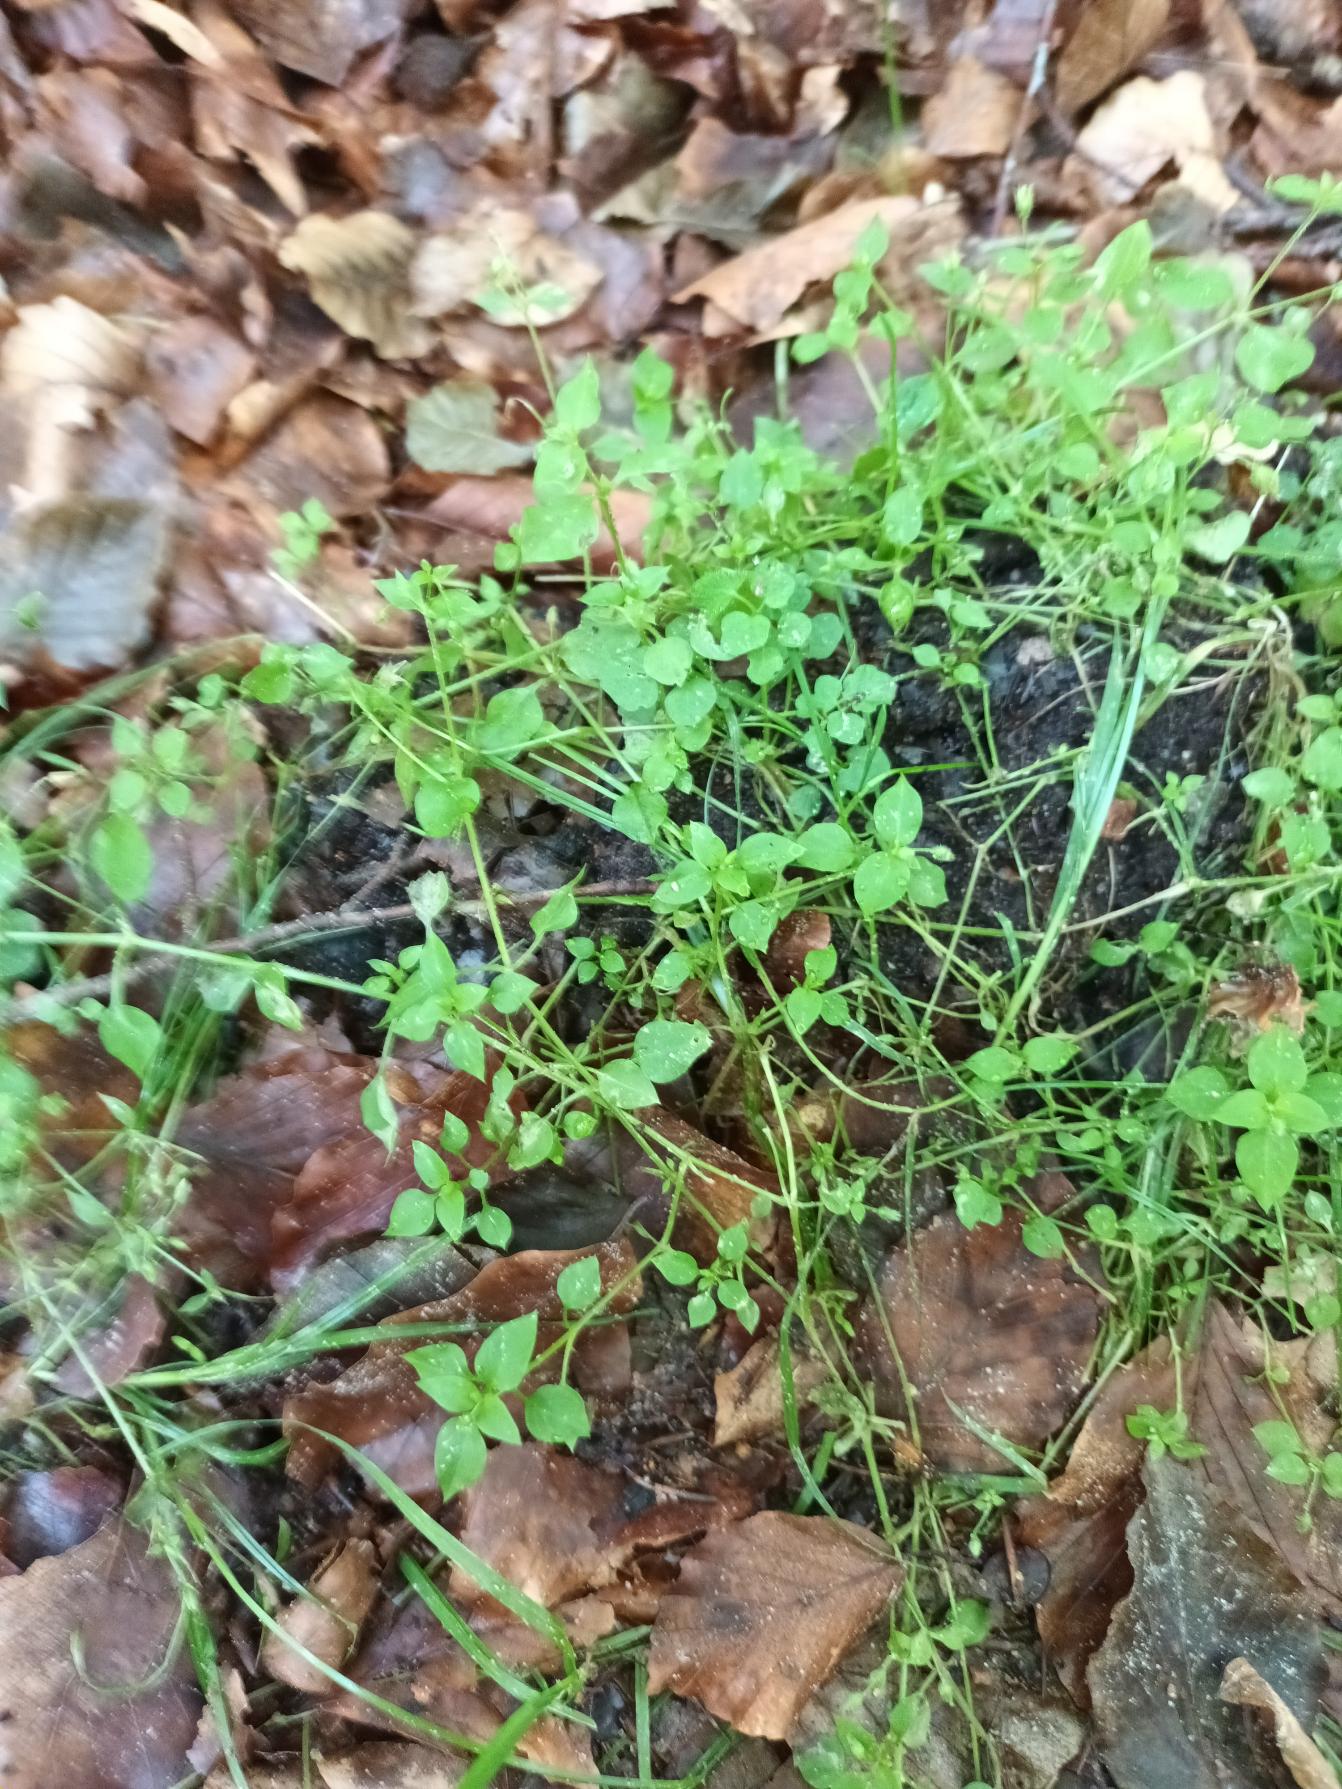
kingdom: Plantae
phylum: Tracheophyta
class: Magnoliopsida
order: Caryophyllales
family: Caryophyllaceae
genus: Stellaria
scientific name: Stellaria media
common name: Almindelig fuglegræs
